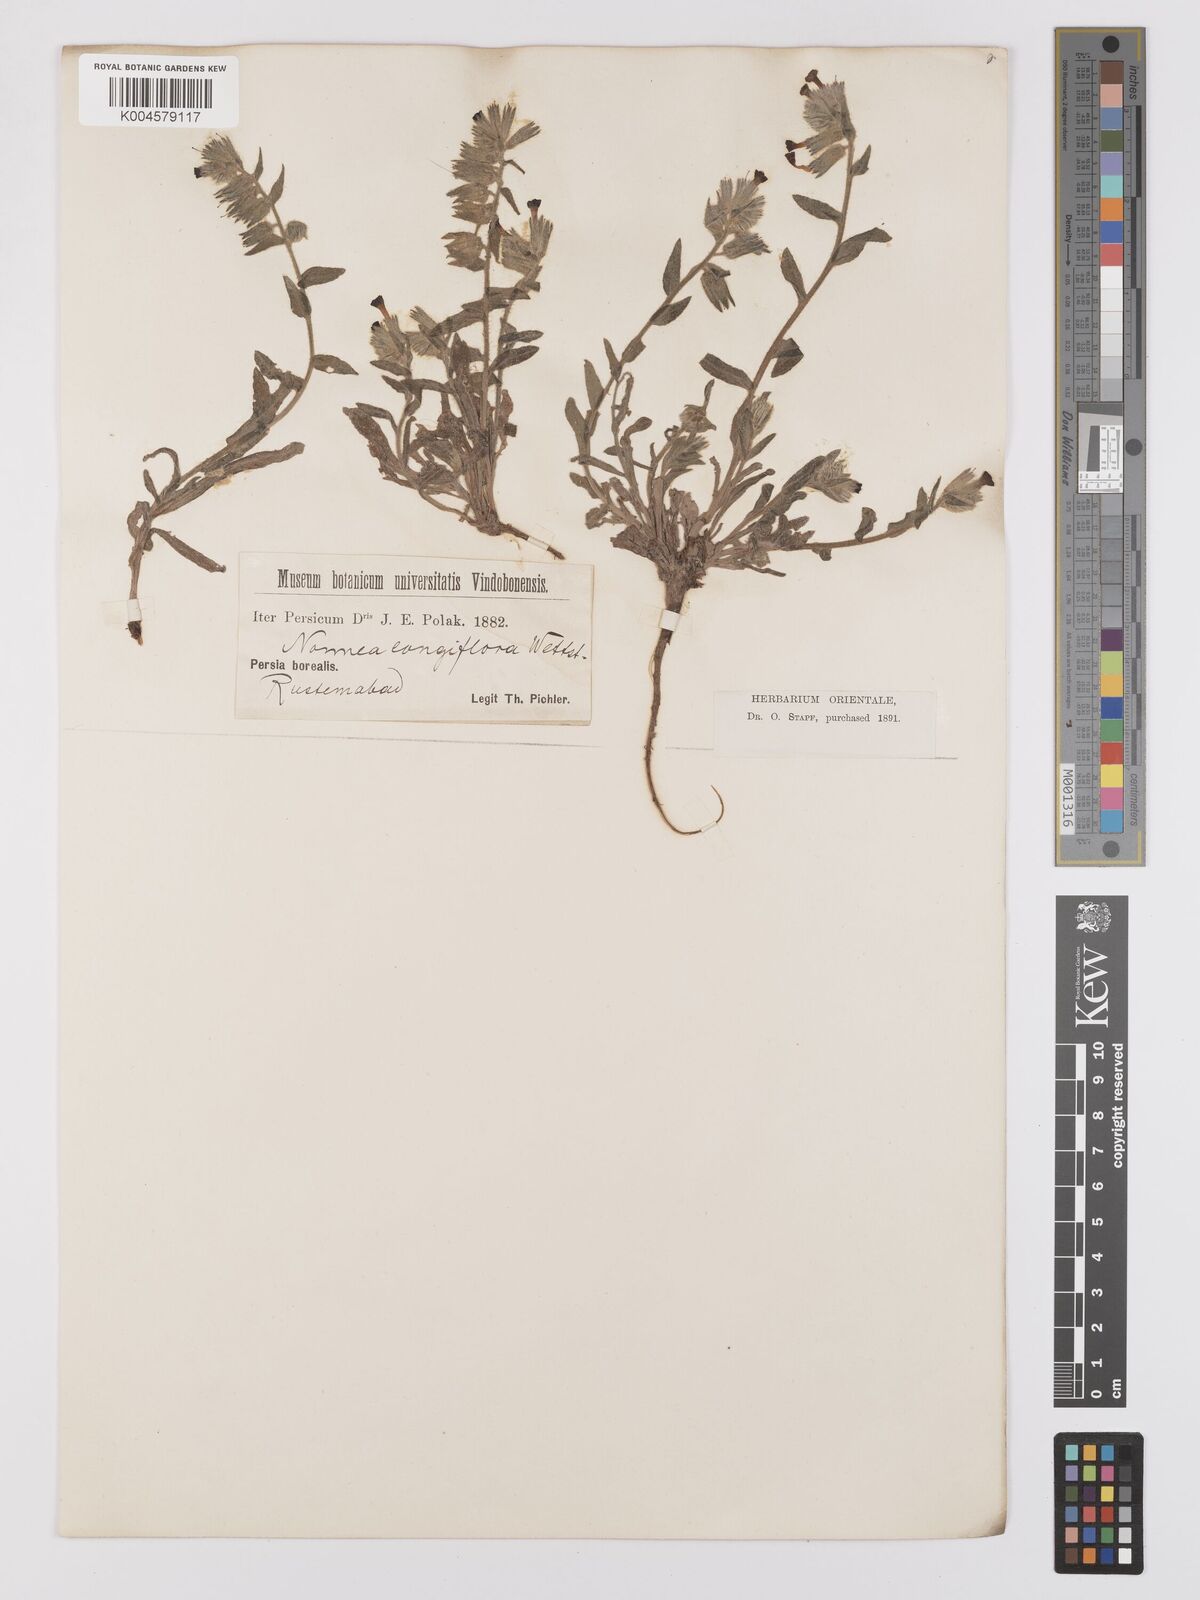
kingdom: Plantae
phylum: Tracheophyta
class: Magnoliopsida
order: Boraginales
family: Boraginaceae
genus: Nonea
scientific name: Nonea longiflora
